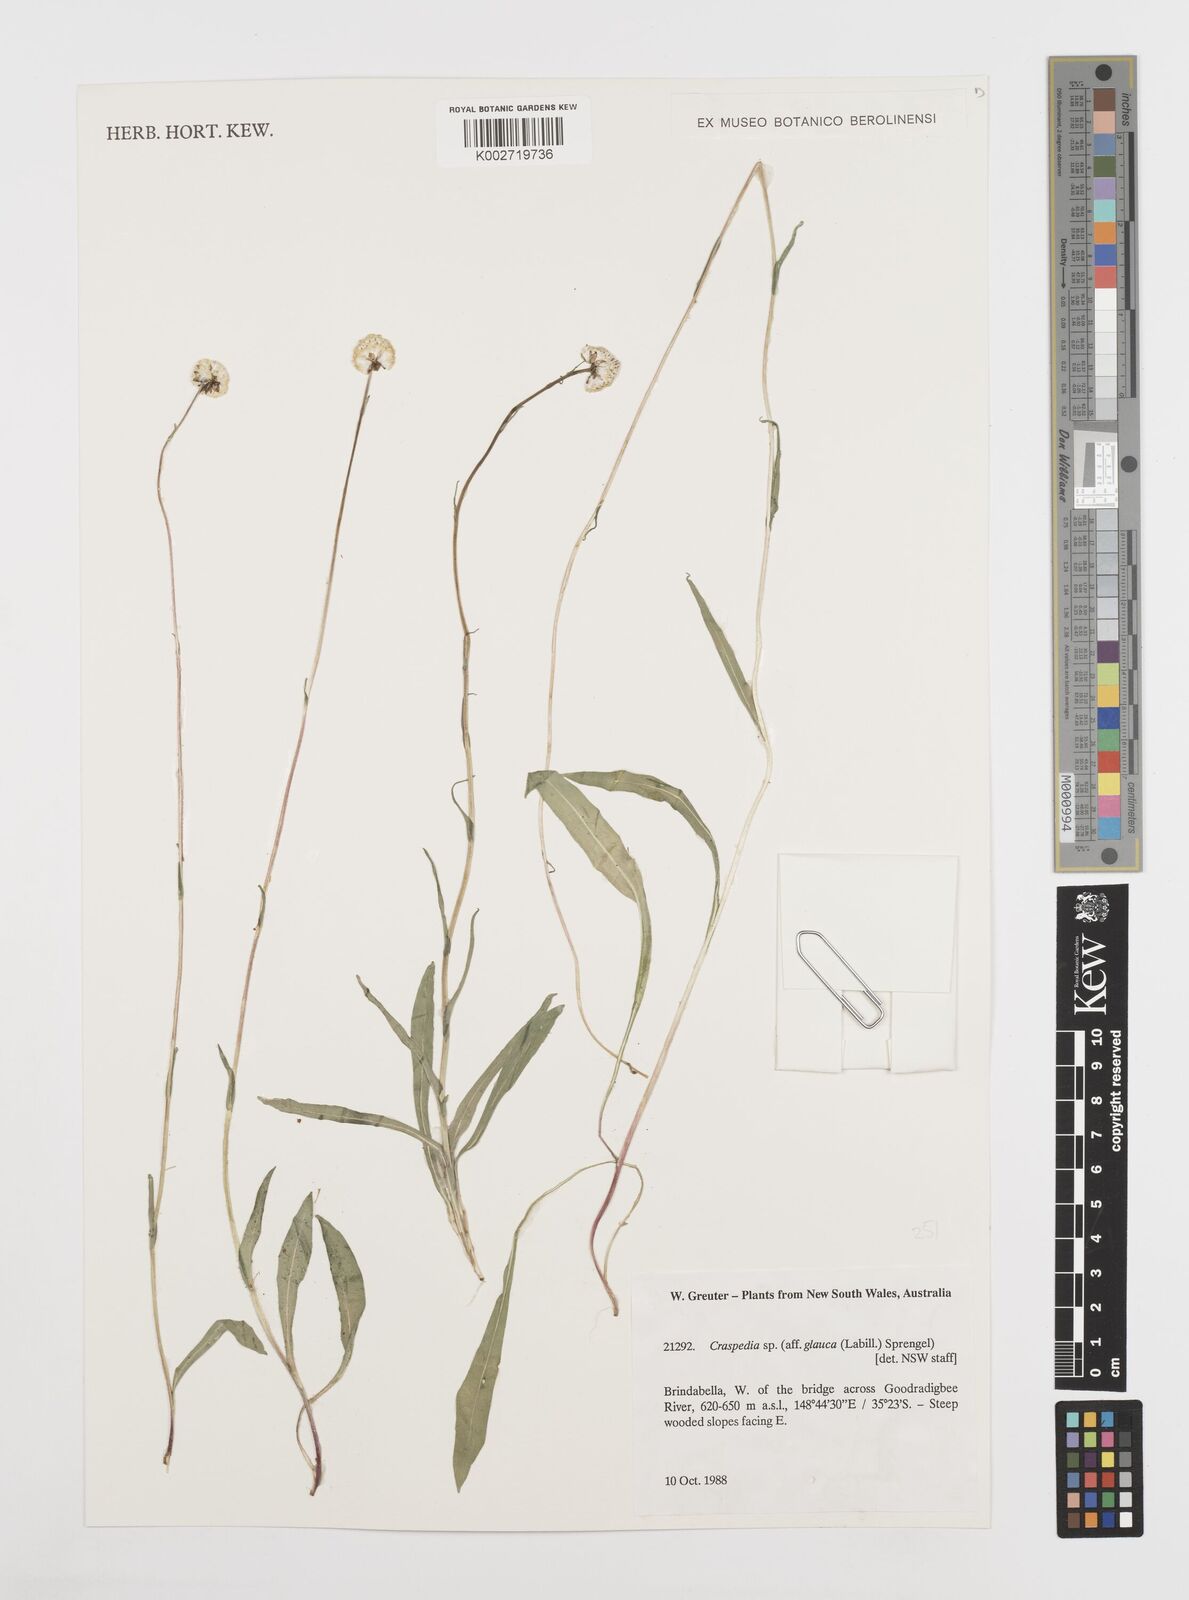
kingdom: Plantae
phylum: Tracheophyta
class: Magnoliopsida
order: Asterales
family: Asteraceae
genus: Craspedia
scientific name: Craspedia glauca
